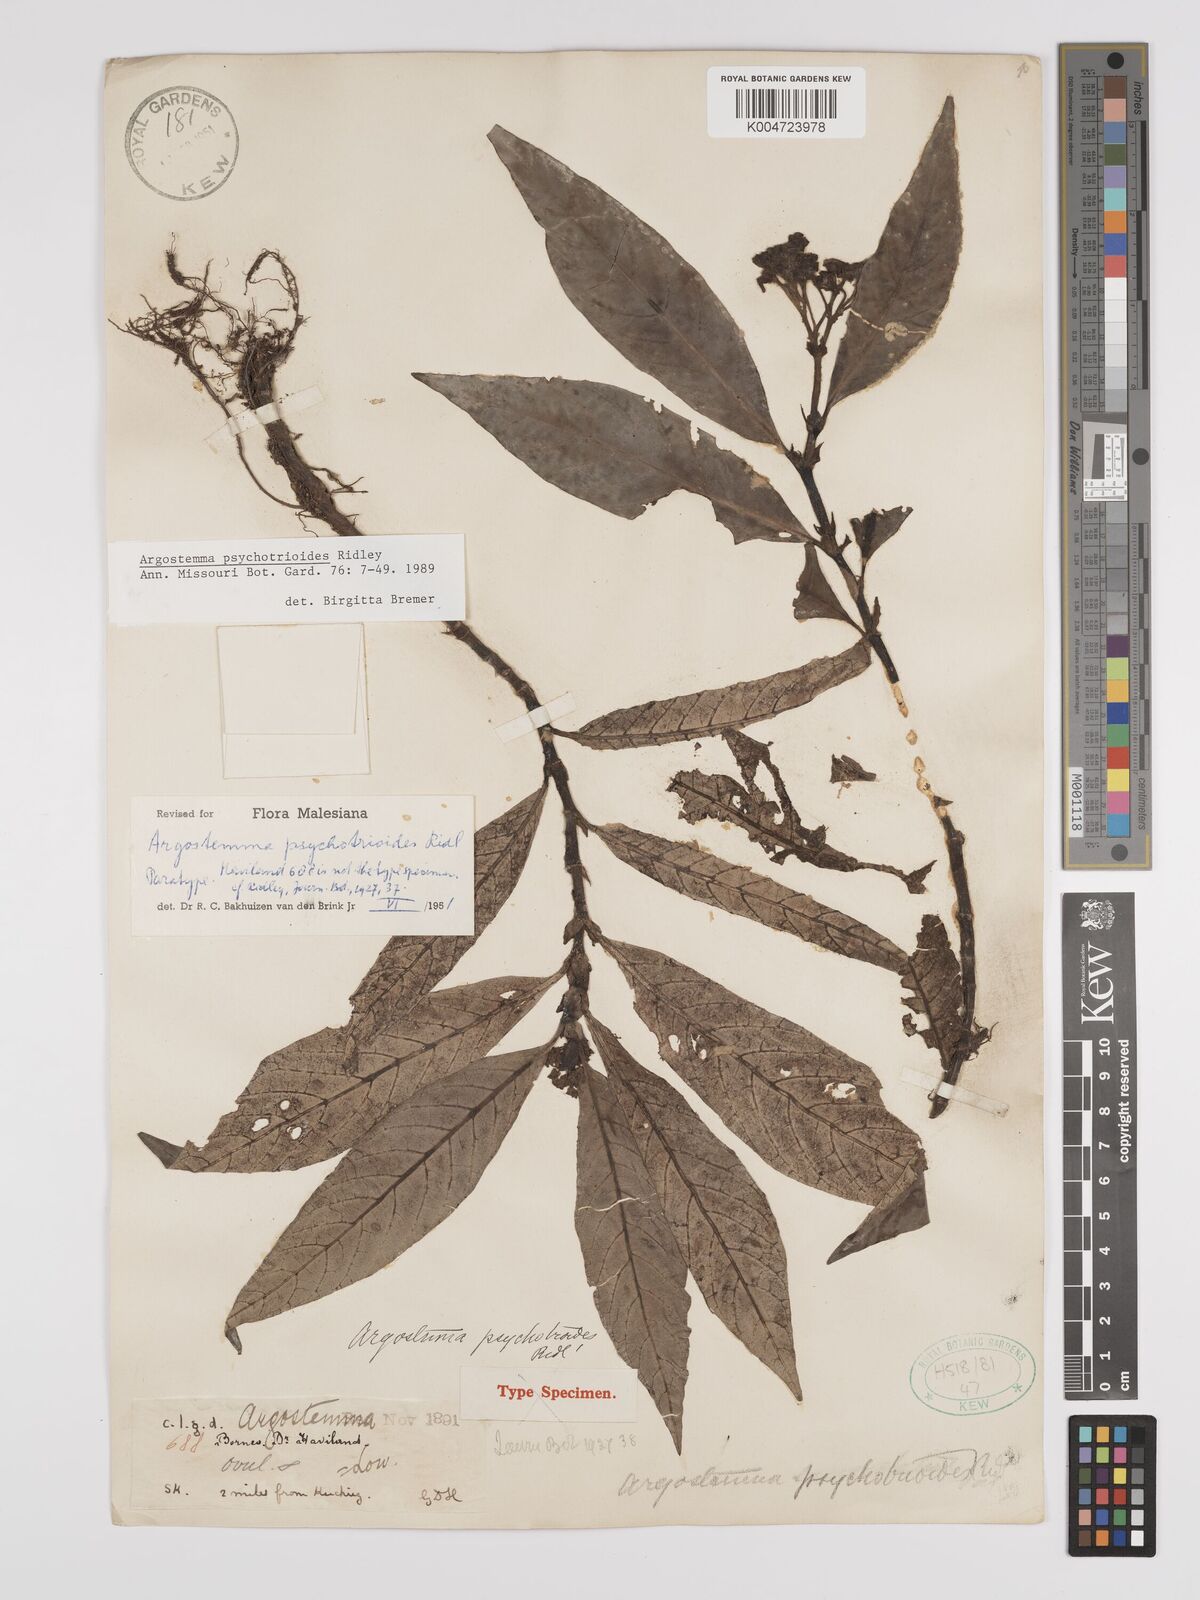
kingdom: Plantae
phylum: Tracheophyta
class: Magnoliopsida
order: Gentianales
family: Rubiaceae
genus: Argostemma
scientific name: Argostemma psychotrioides
